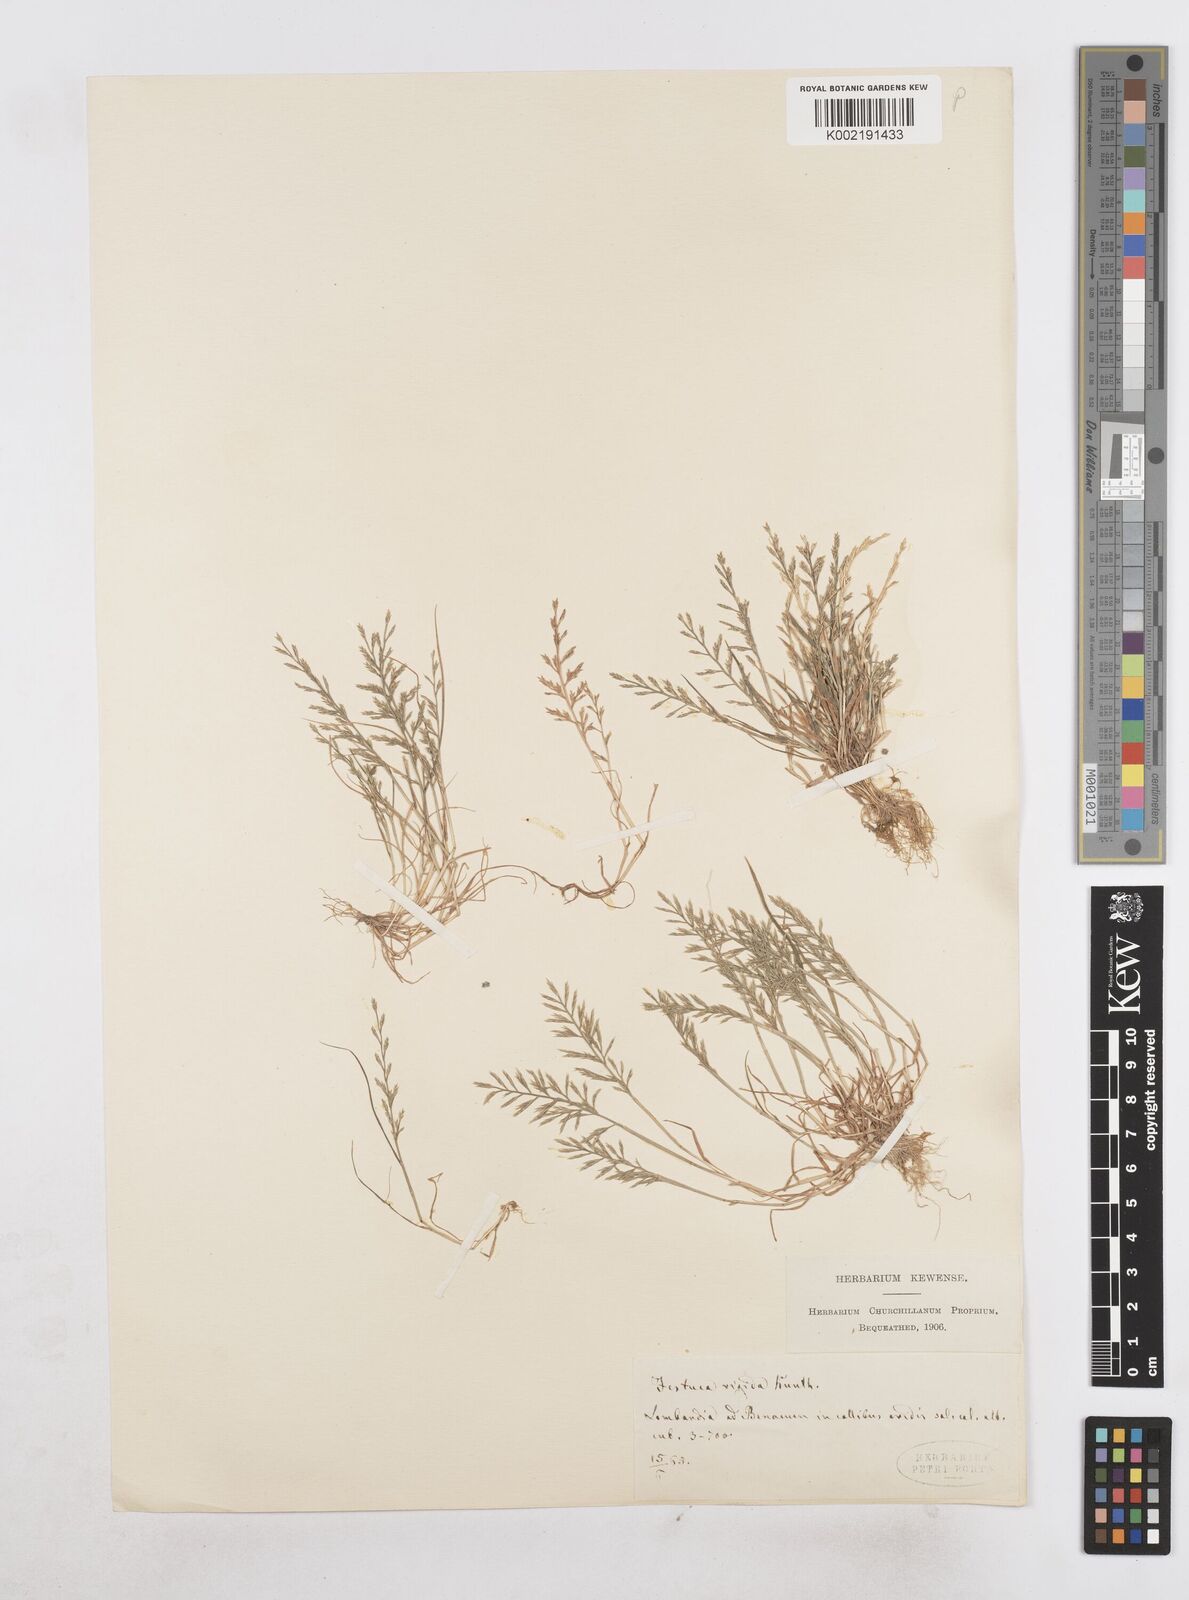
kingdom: Plantae
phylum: Tracheophyta
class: Liliopsida
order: Poales
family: Poaceae
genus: Catapodium
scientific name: Catapodium rigidum
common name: Fern-grass
